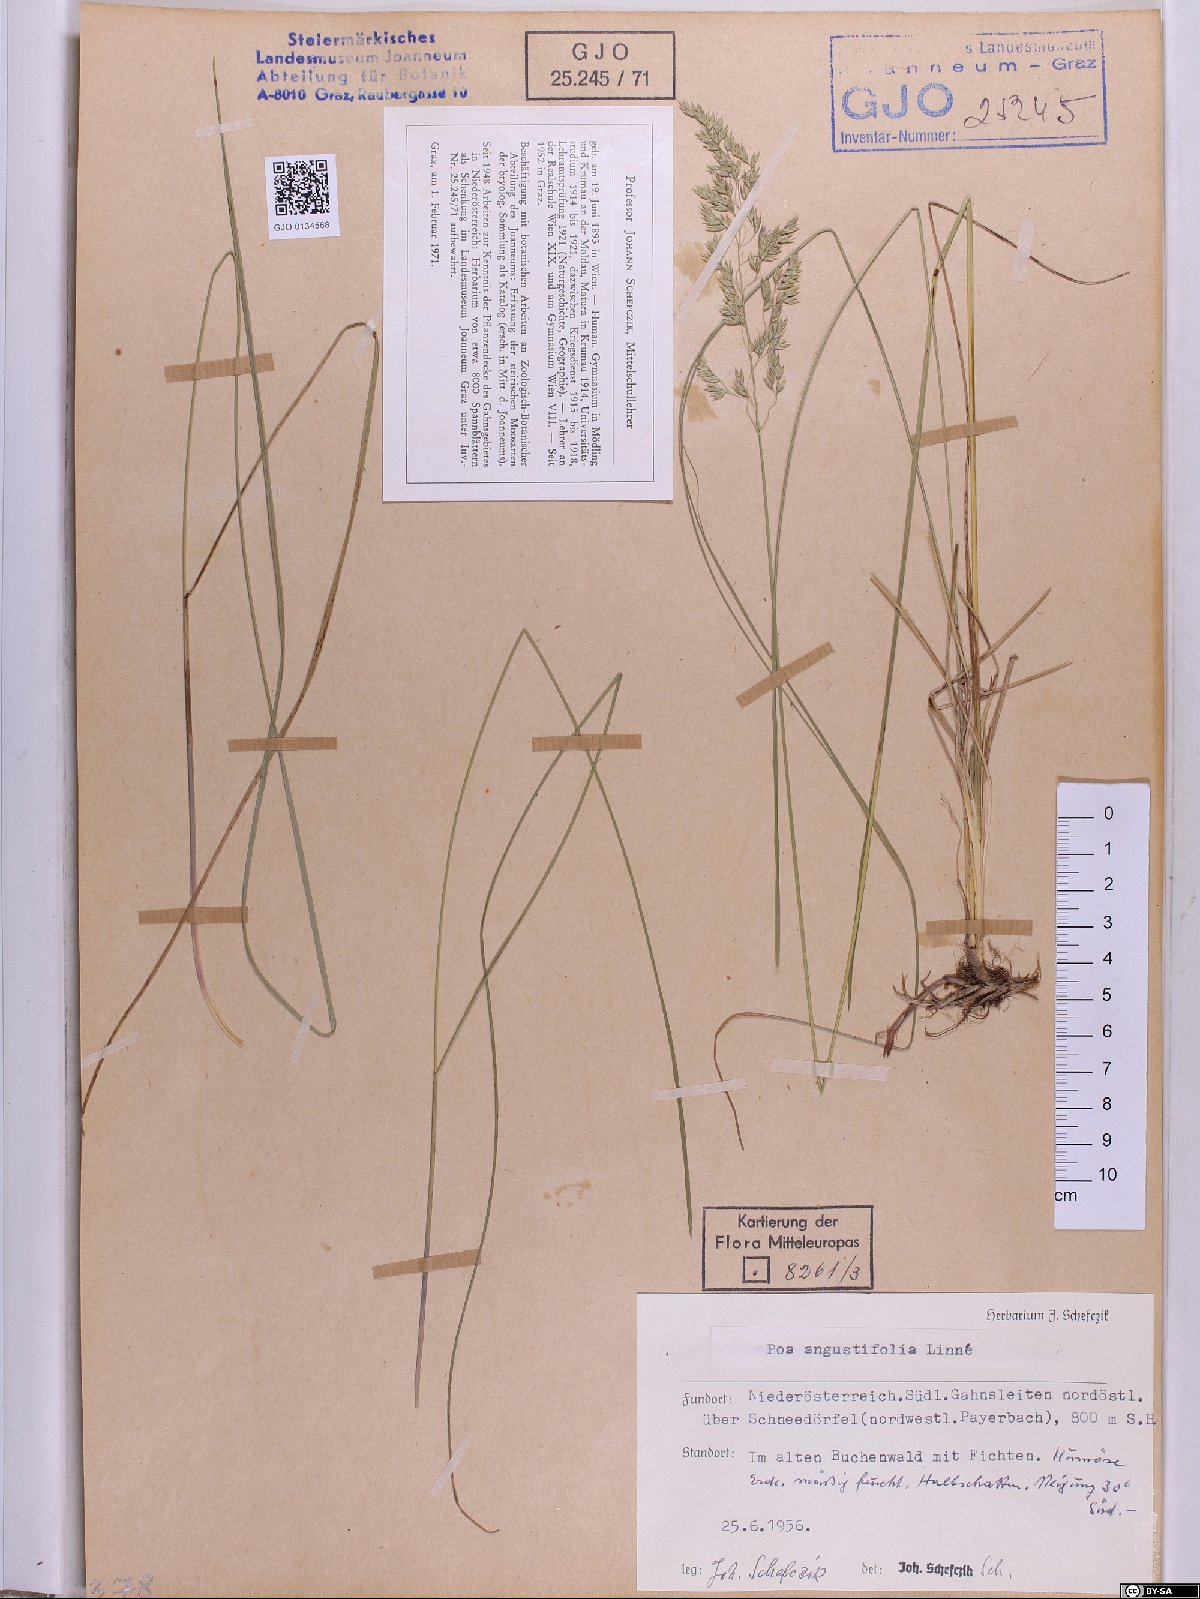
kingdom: Plantae
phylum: Tracheophyta
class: Liliopsida
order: Poales
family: Poaceae
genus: Poa
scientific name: Poa angustifolia
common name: Narrow-leaved meadow-grass
